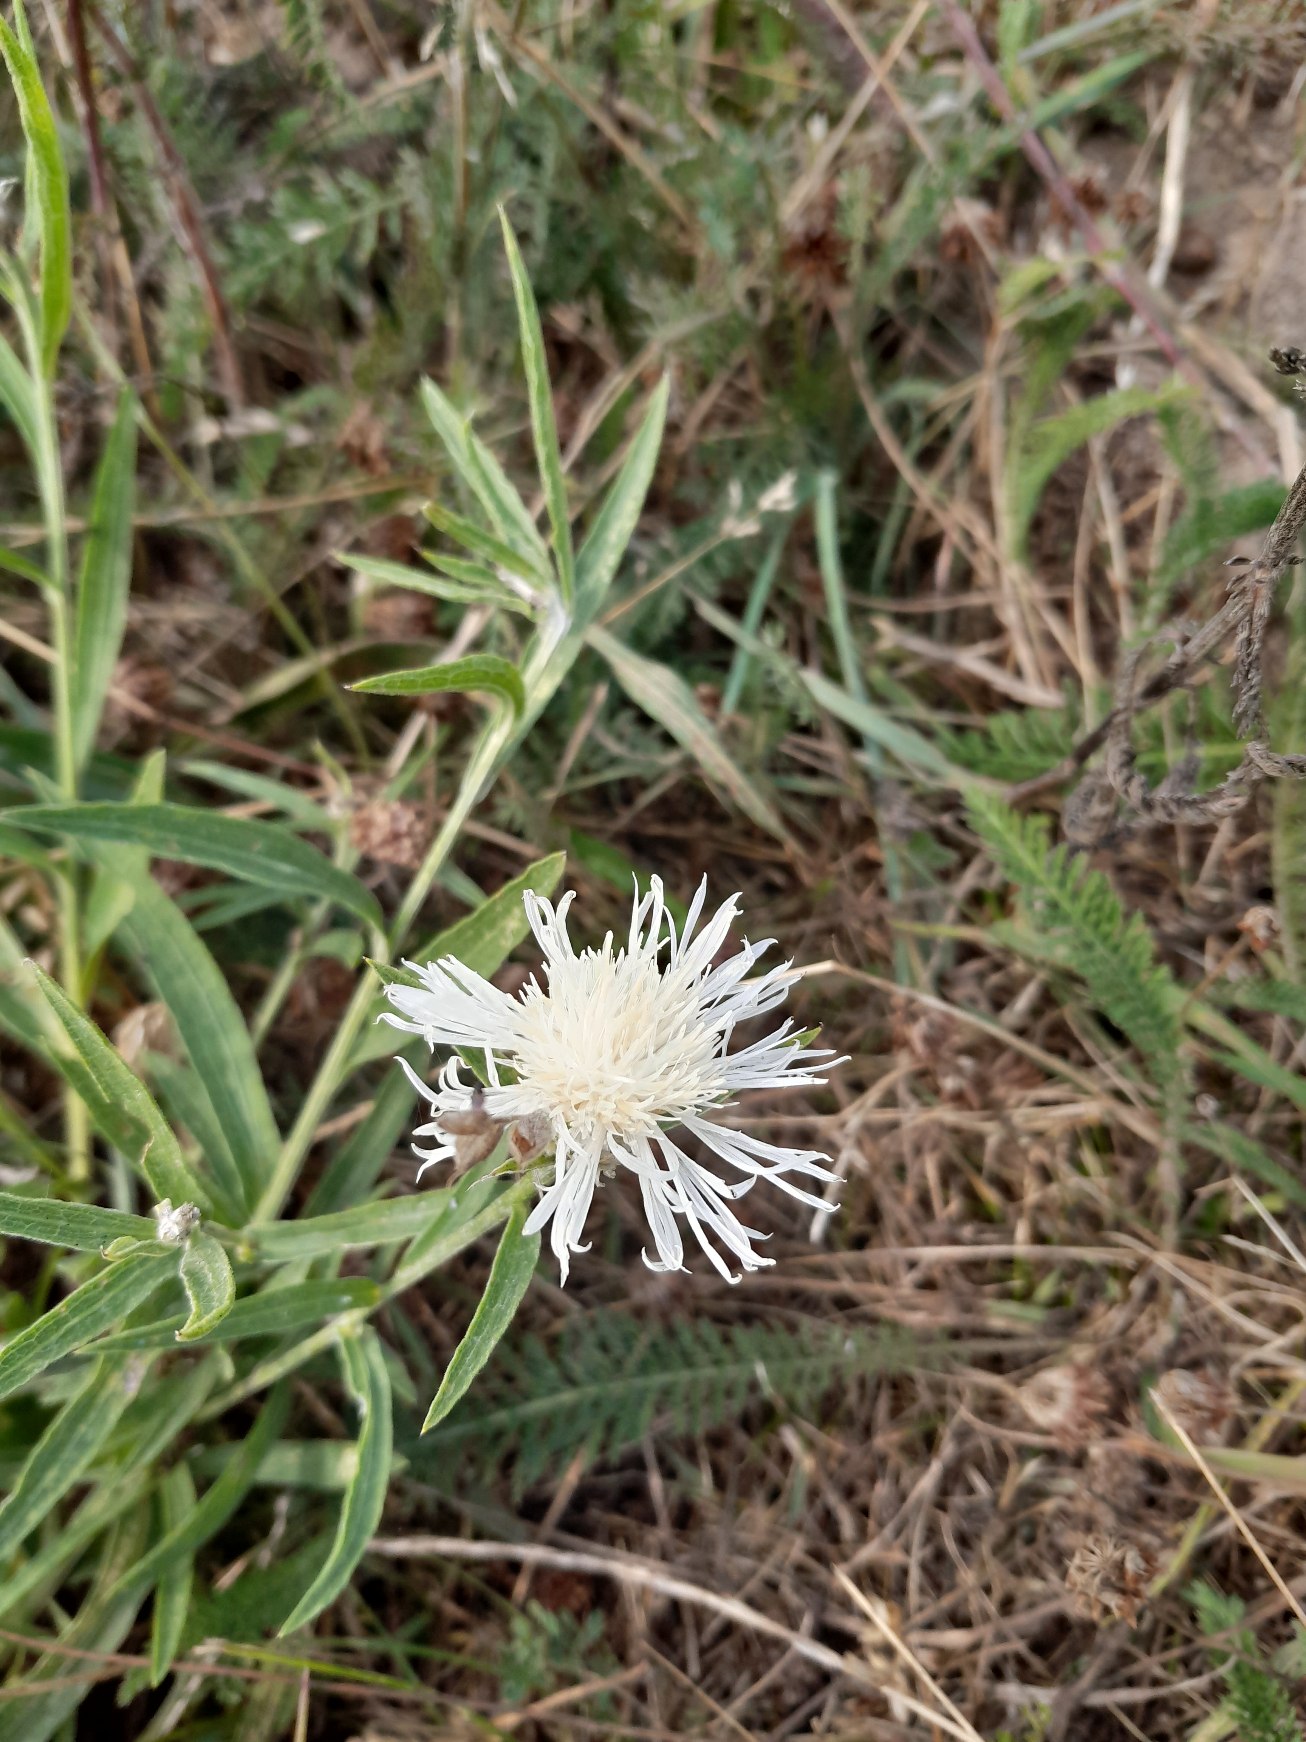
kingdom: Plantae
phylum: Tracheophyta
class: Magnoliopsida
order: Asterales
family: Asteraceae
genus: Centaurea
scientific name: Centaurea jacea
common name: Almindelig knopurt
